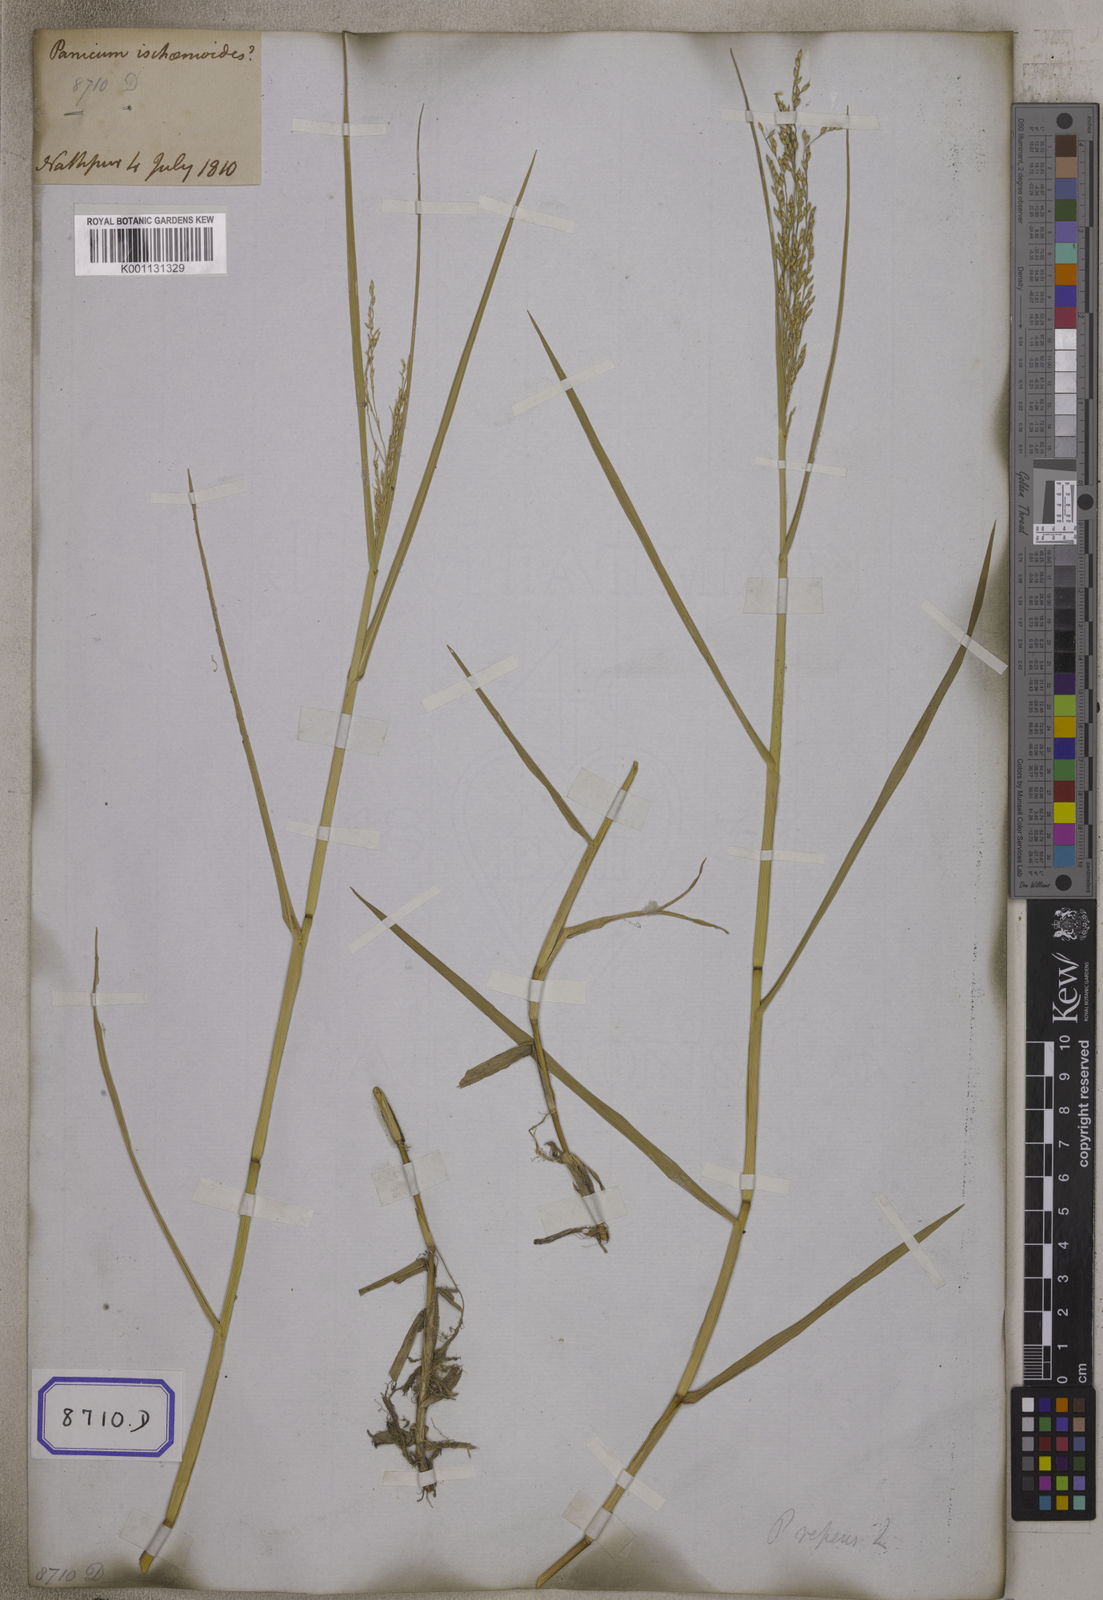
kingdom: Plantae
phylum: Tracheophyta
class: Liliopsida
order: Poales
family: Poaceae
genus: Panicum
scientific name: Panicum repens
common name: Torpedo grass
